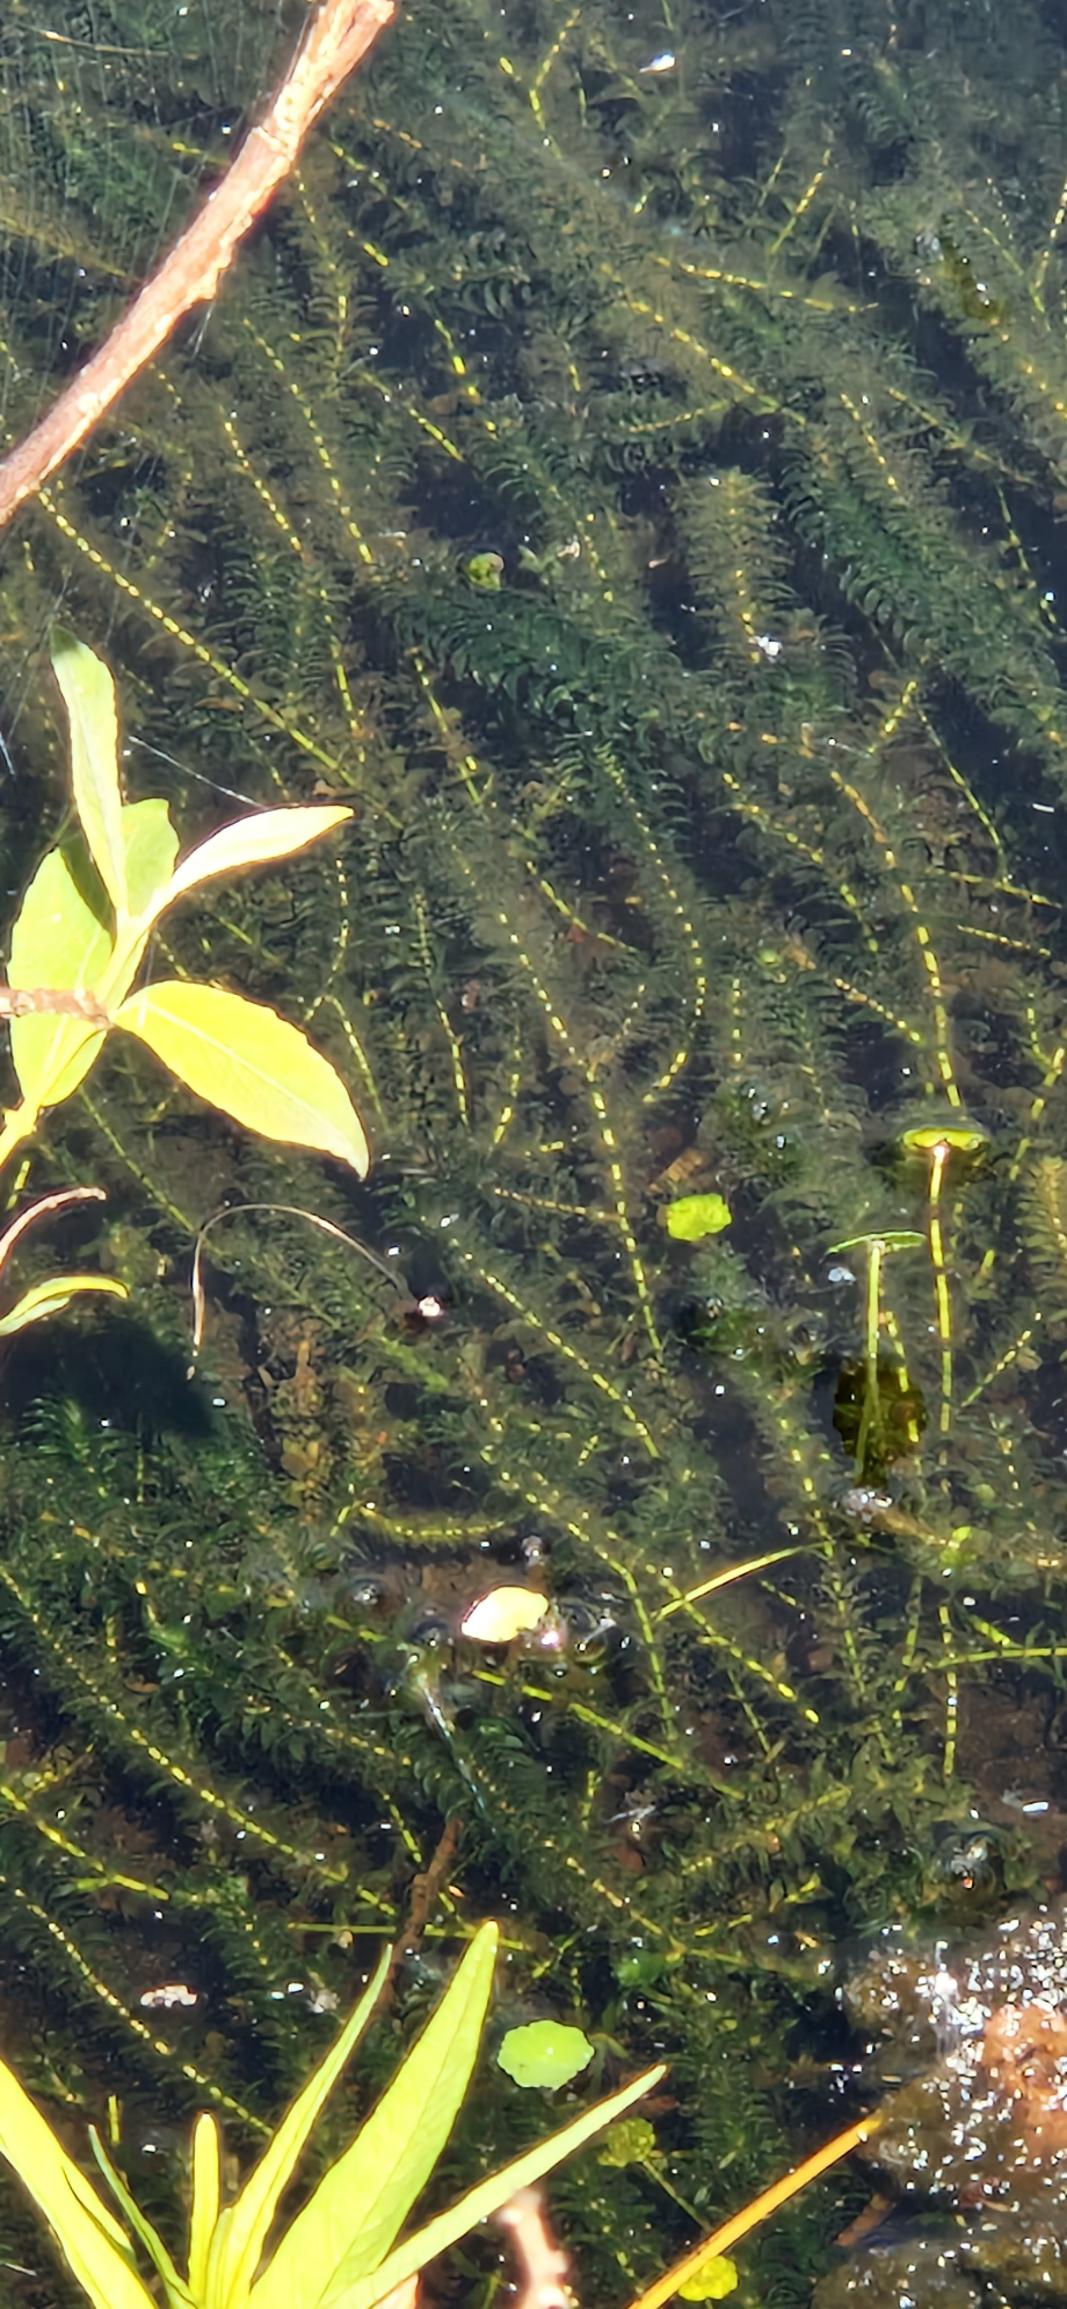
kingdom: Plantae
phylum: Tracheophyta
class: Liliopsida
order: Alismatales
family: Hydrocharitaceae
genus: Elodea
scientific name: Elodea canadensis
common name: Vandpest
